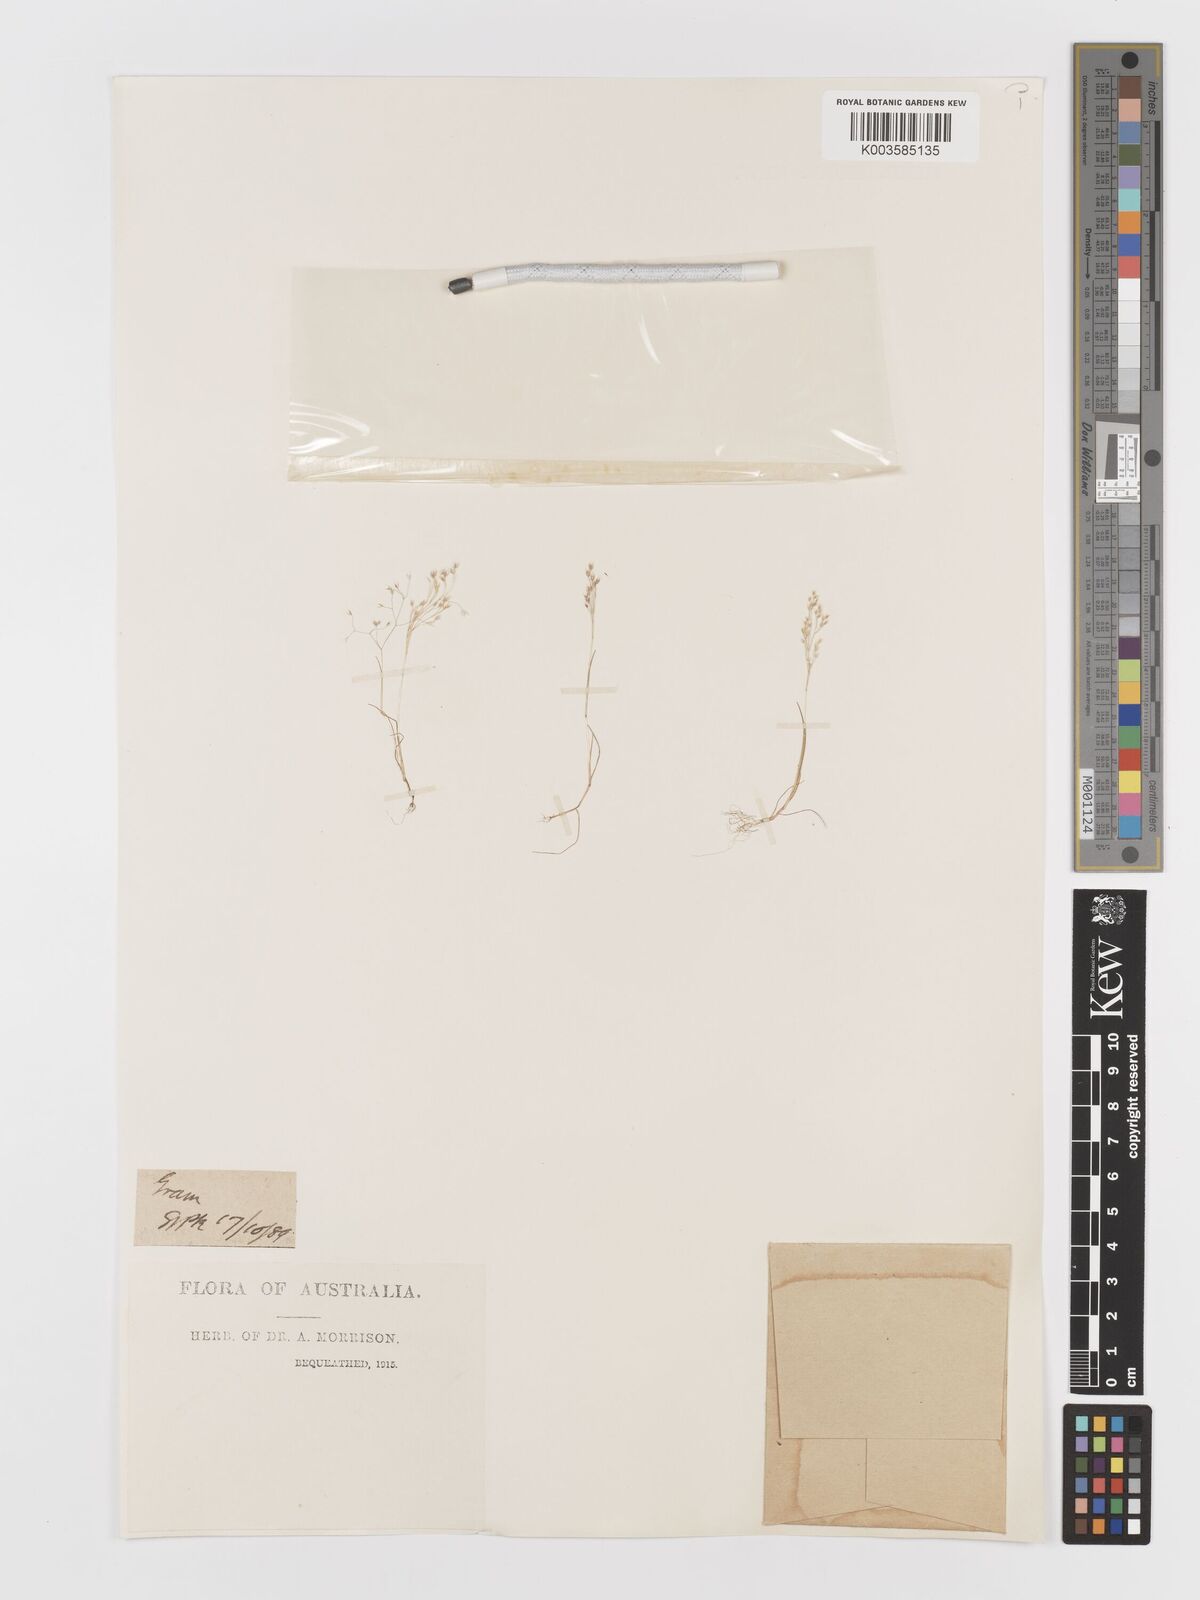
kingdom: Plantae
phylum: Tracheophyta
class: Liliopsida
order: Poales
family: Poaceae
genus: Aira
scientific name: Aira cupaniana
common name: Silver hairgrass
